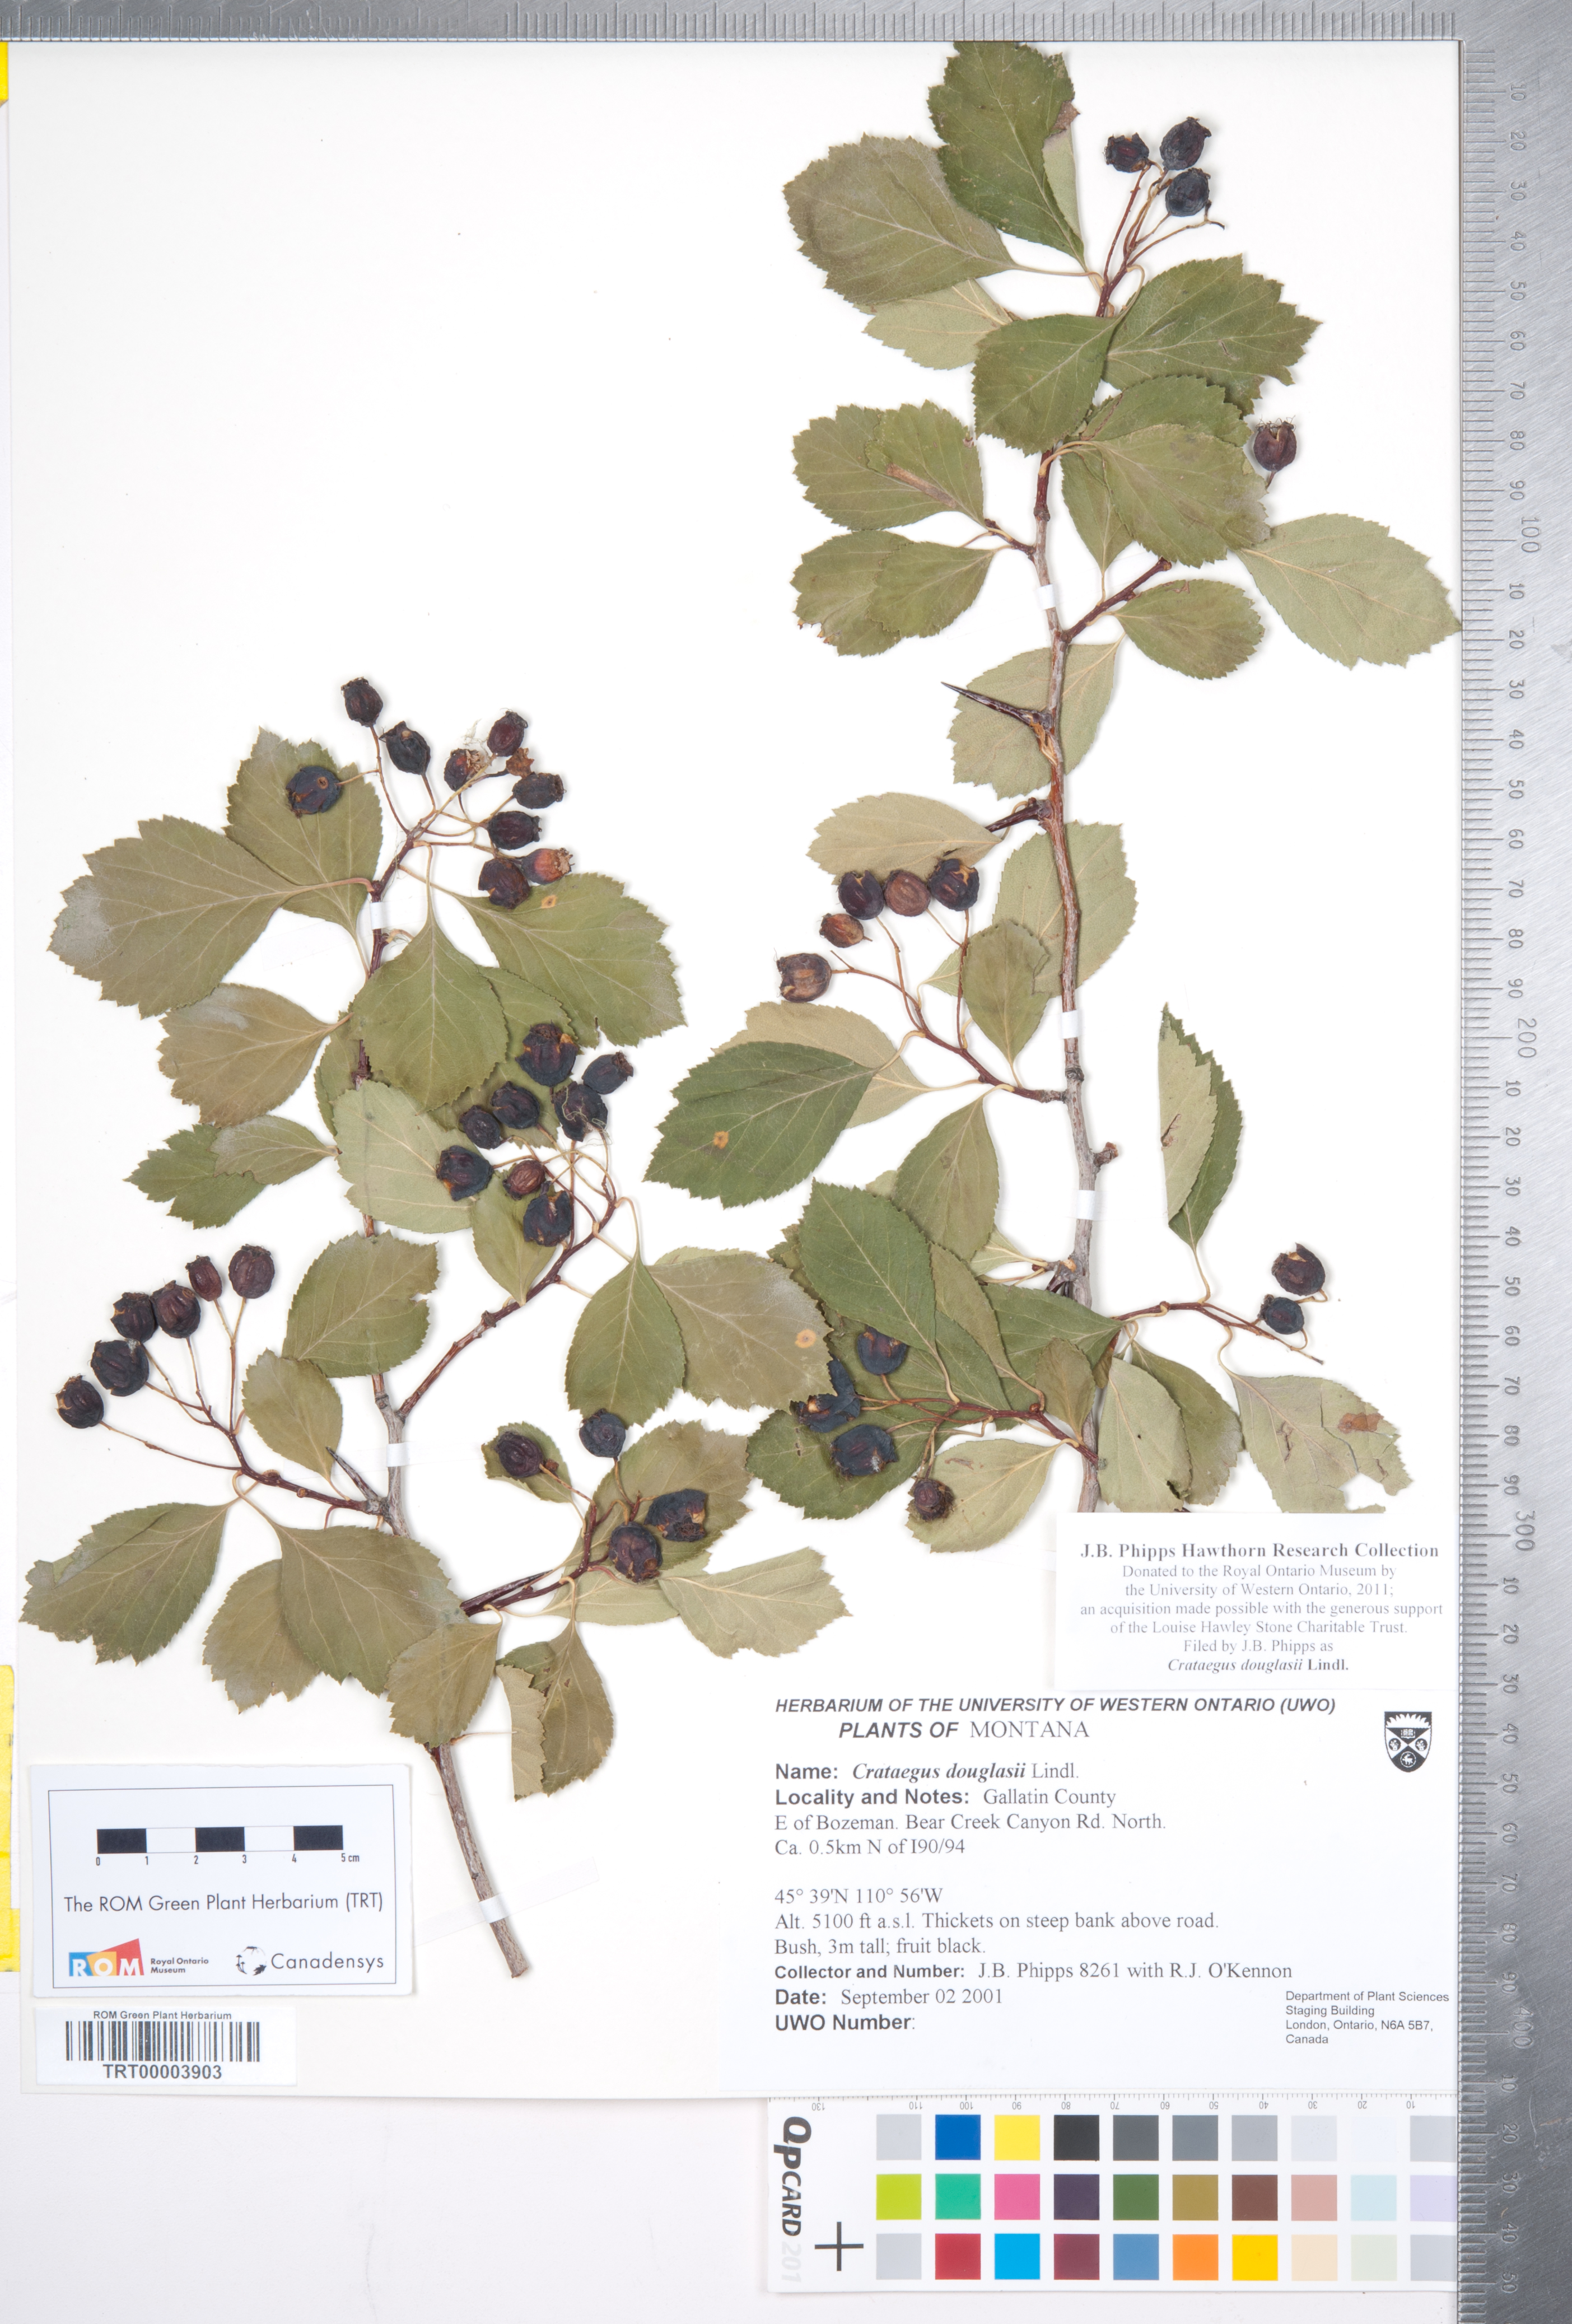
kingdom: Plantae
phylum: Tracheophyta
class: Magnoliopsida
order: Rosales
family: Rosaceae
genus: Crataegus
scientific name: Crataegus douglasii
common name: Black hawthorn
